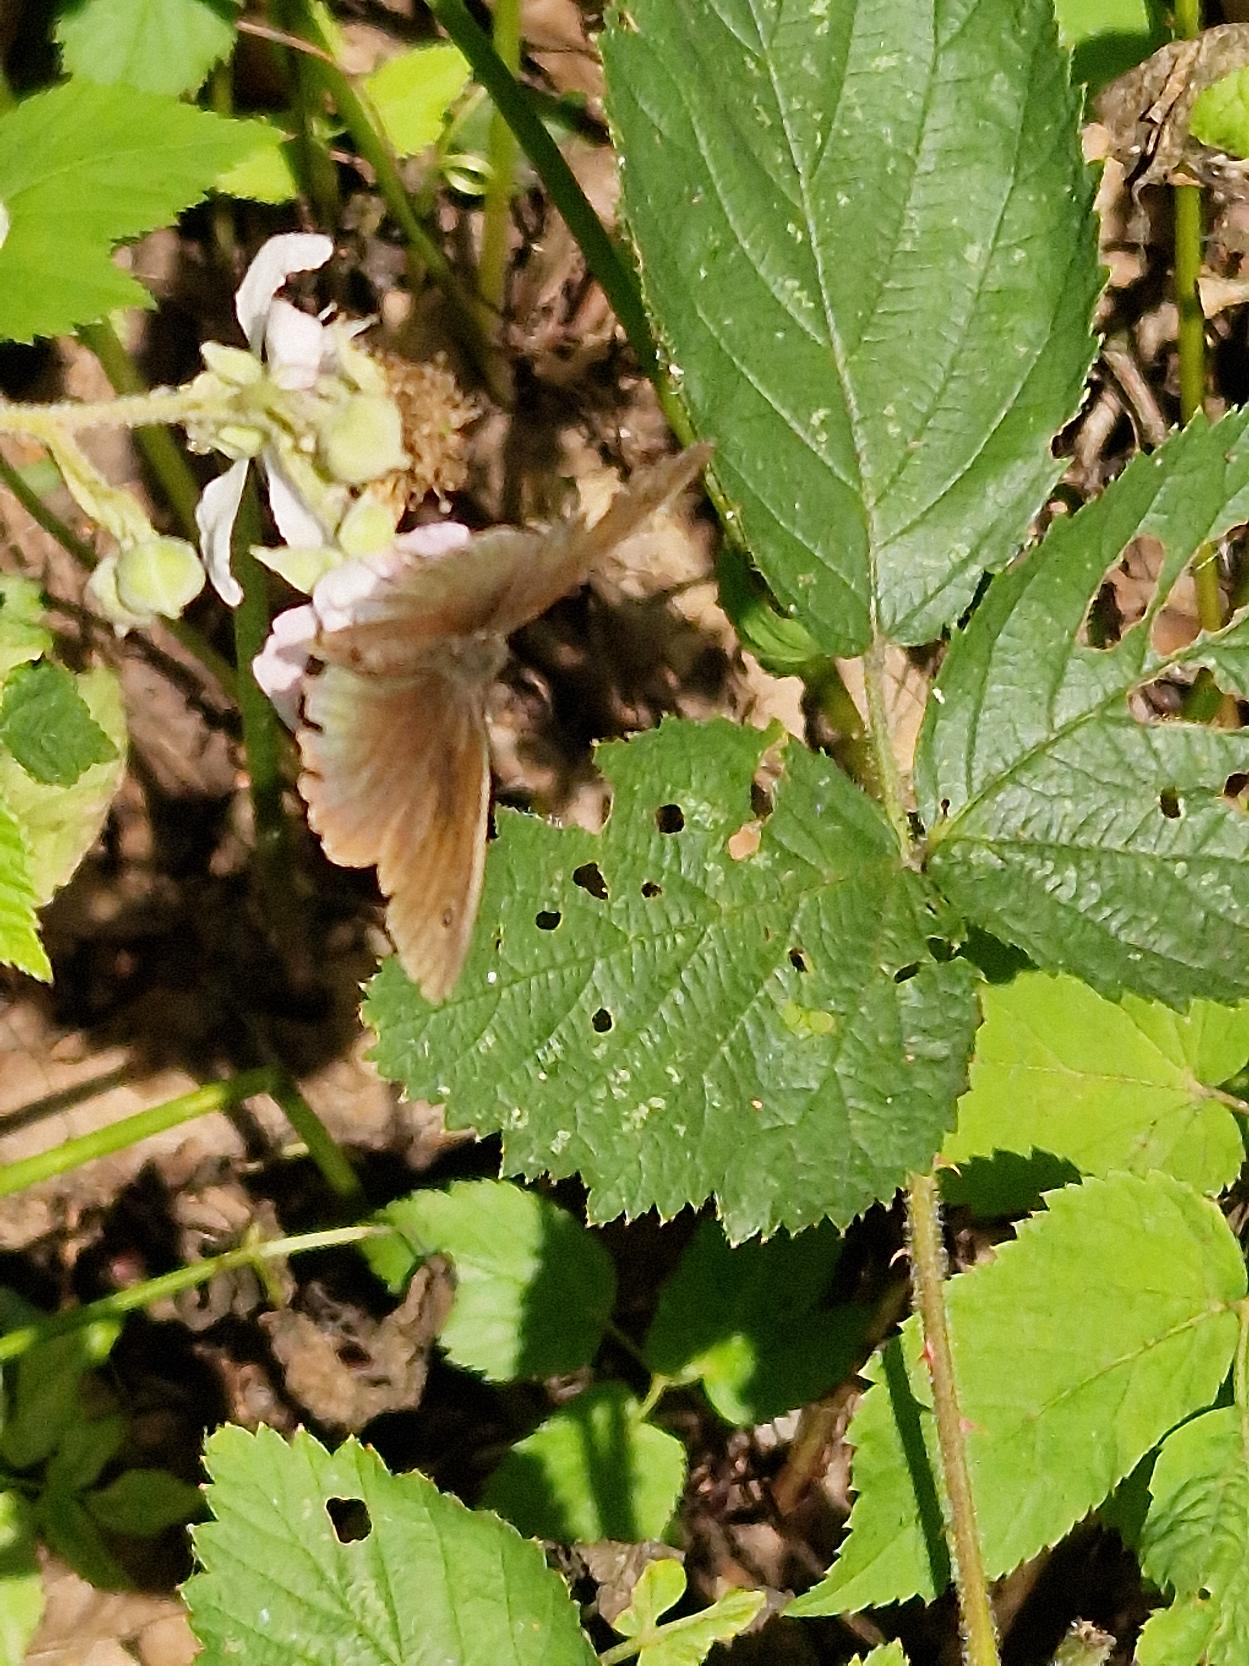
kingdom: Animalia
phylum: Arthropoda
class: Insecta
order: Lepidoptera
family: Nymphalidae
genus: Maniola
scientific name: Maniola jurtina
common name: Græsrandøje
